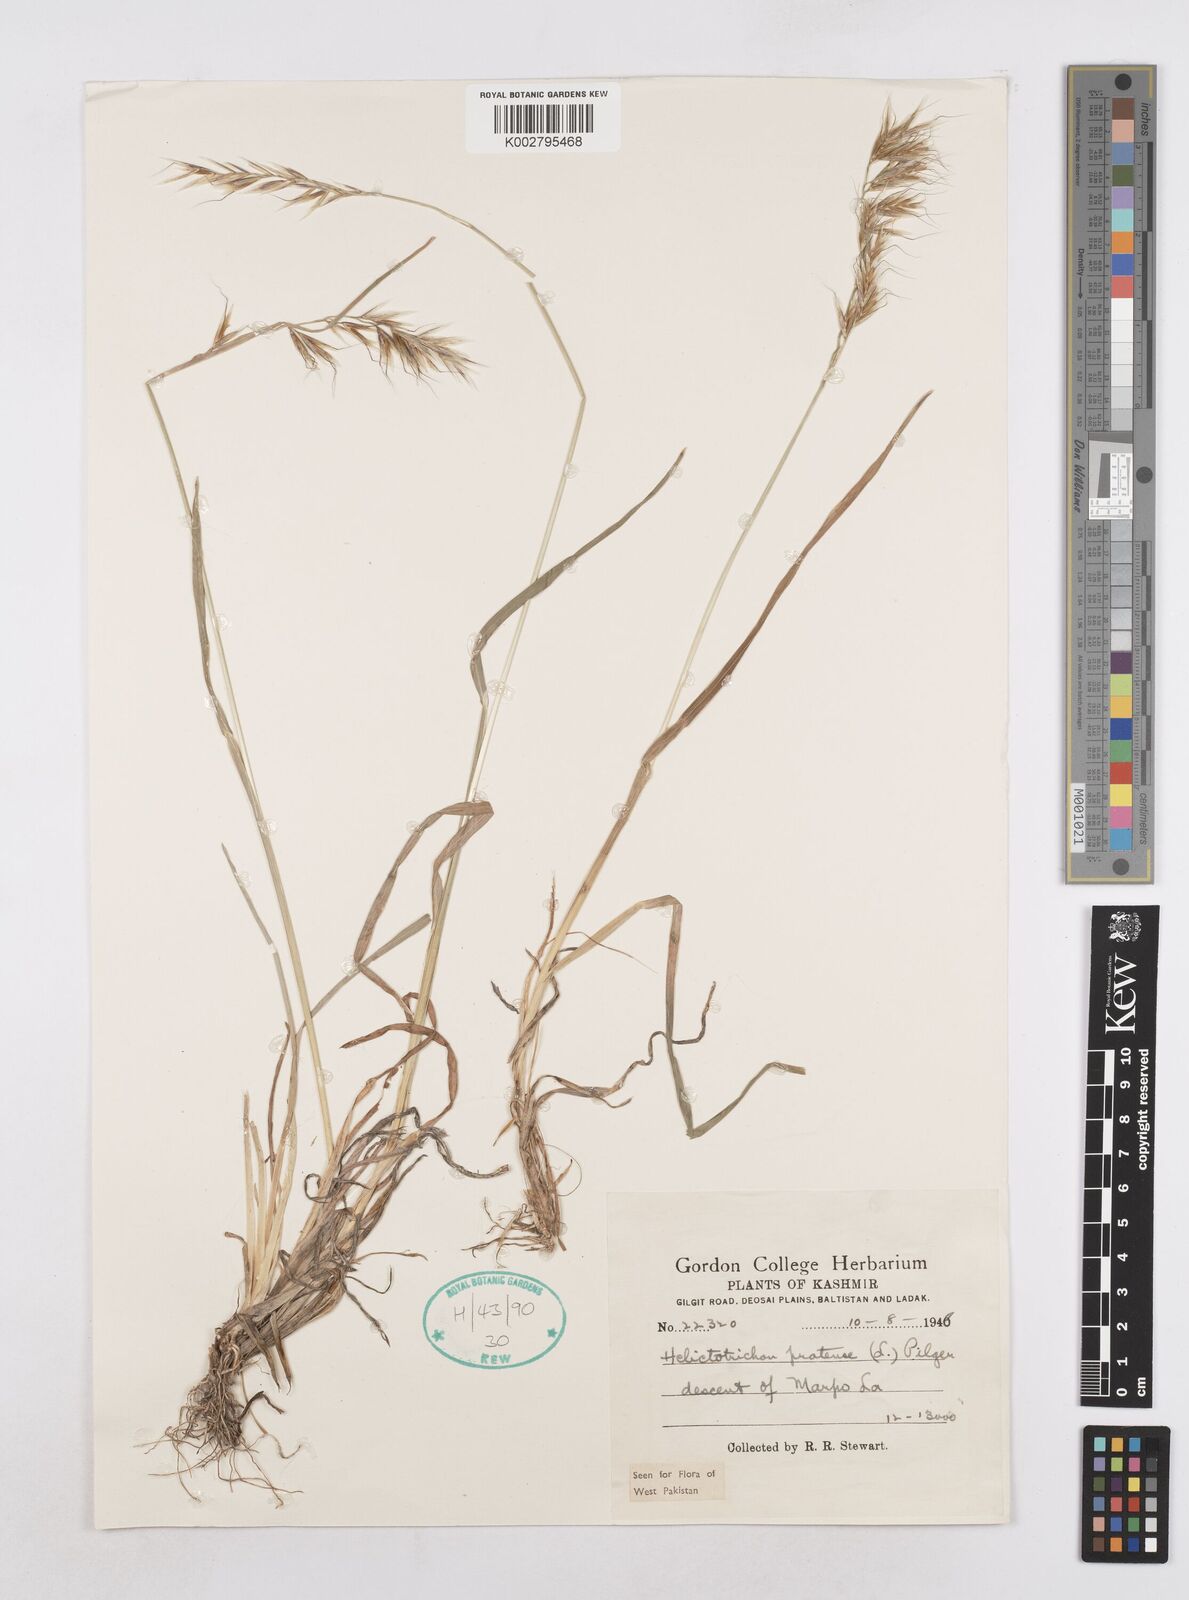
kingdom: Plantae
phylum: Tracheophyta
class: Liliopsida
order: Poales
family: Poaceae
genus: Helictochloa
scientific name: Helictochloa pratensis
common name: Meadow oat grass
